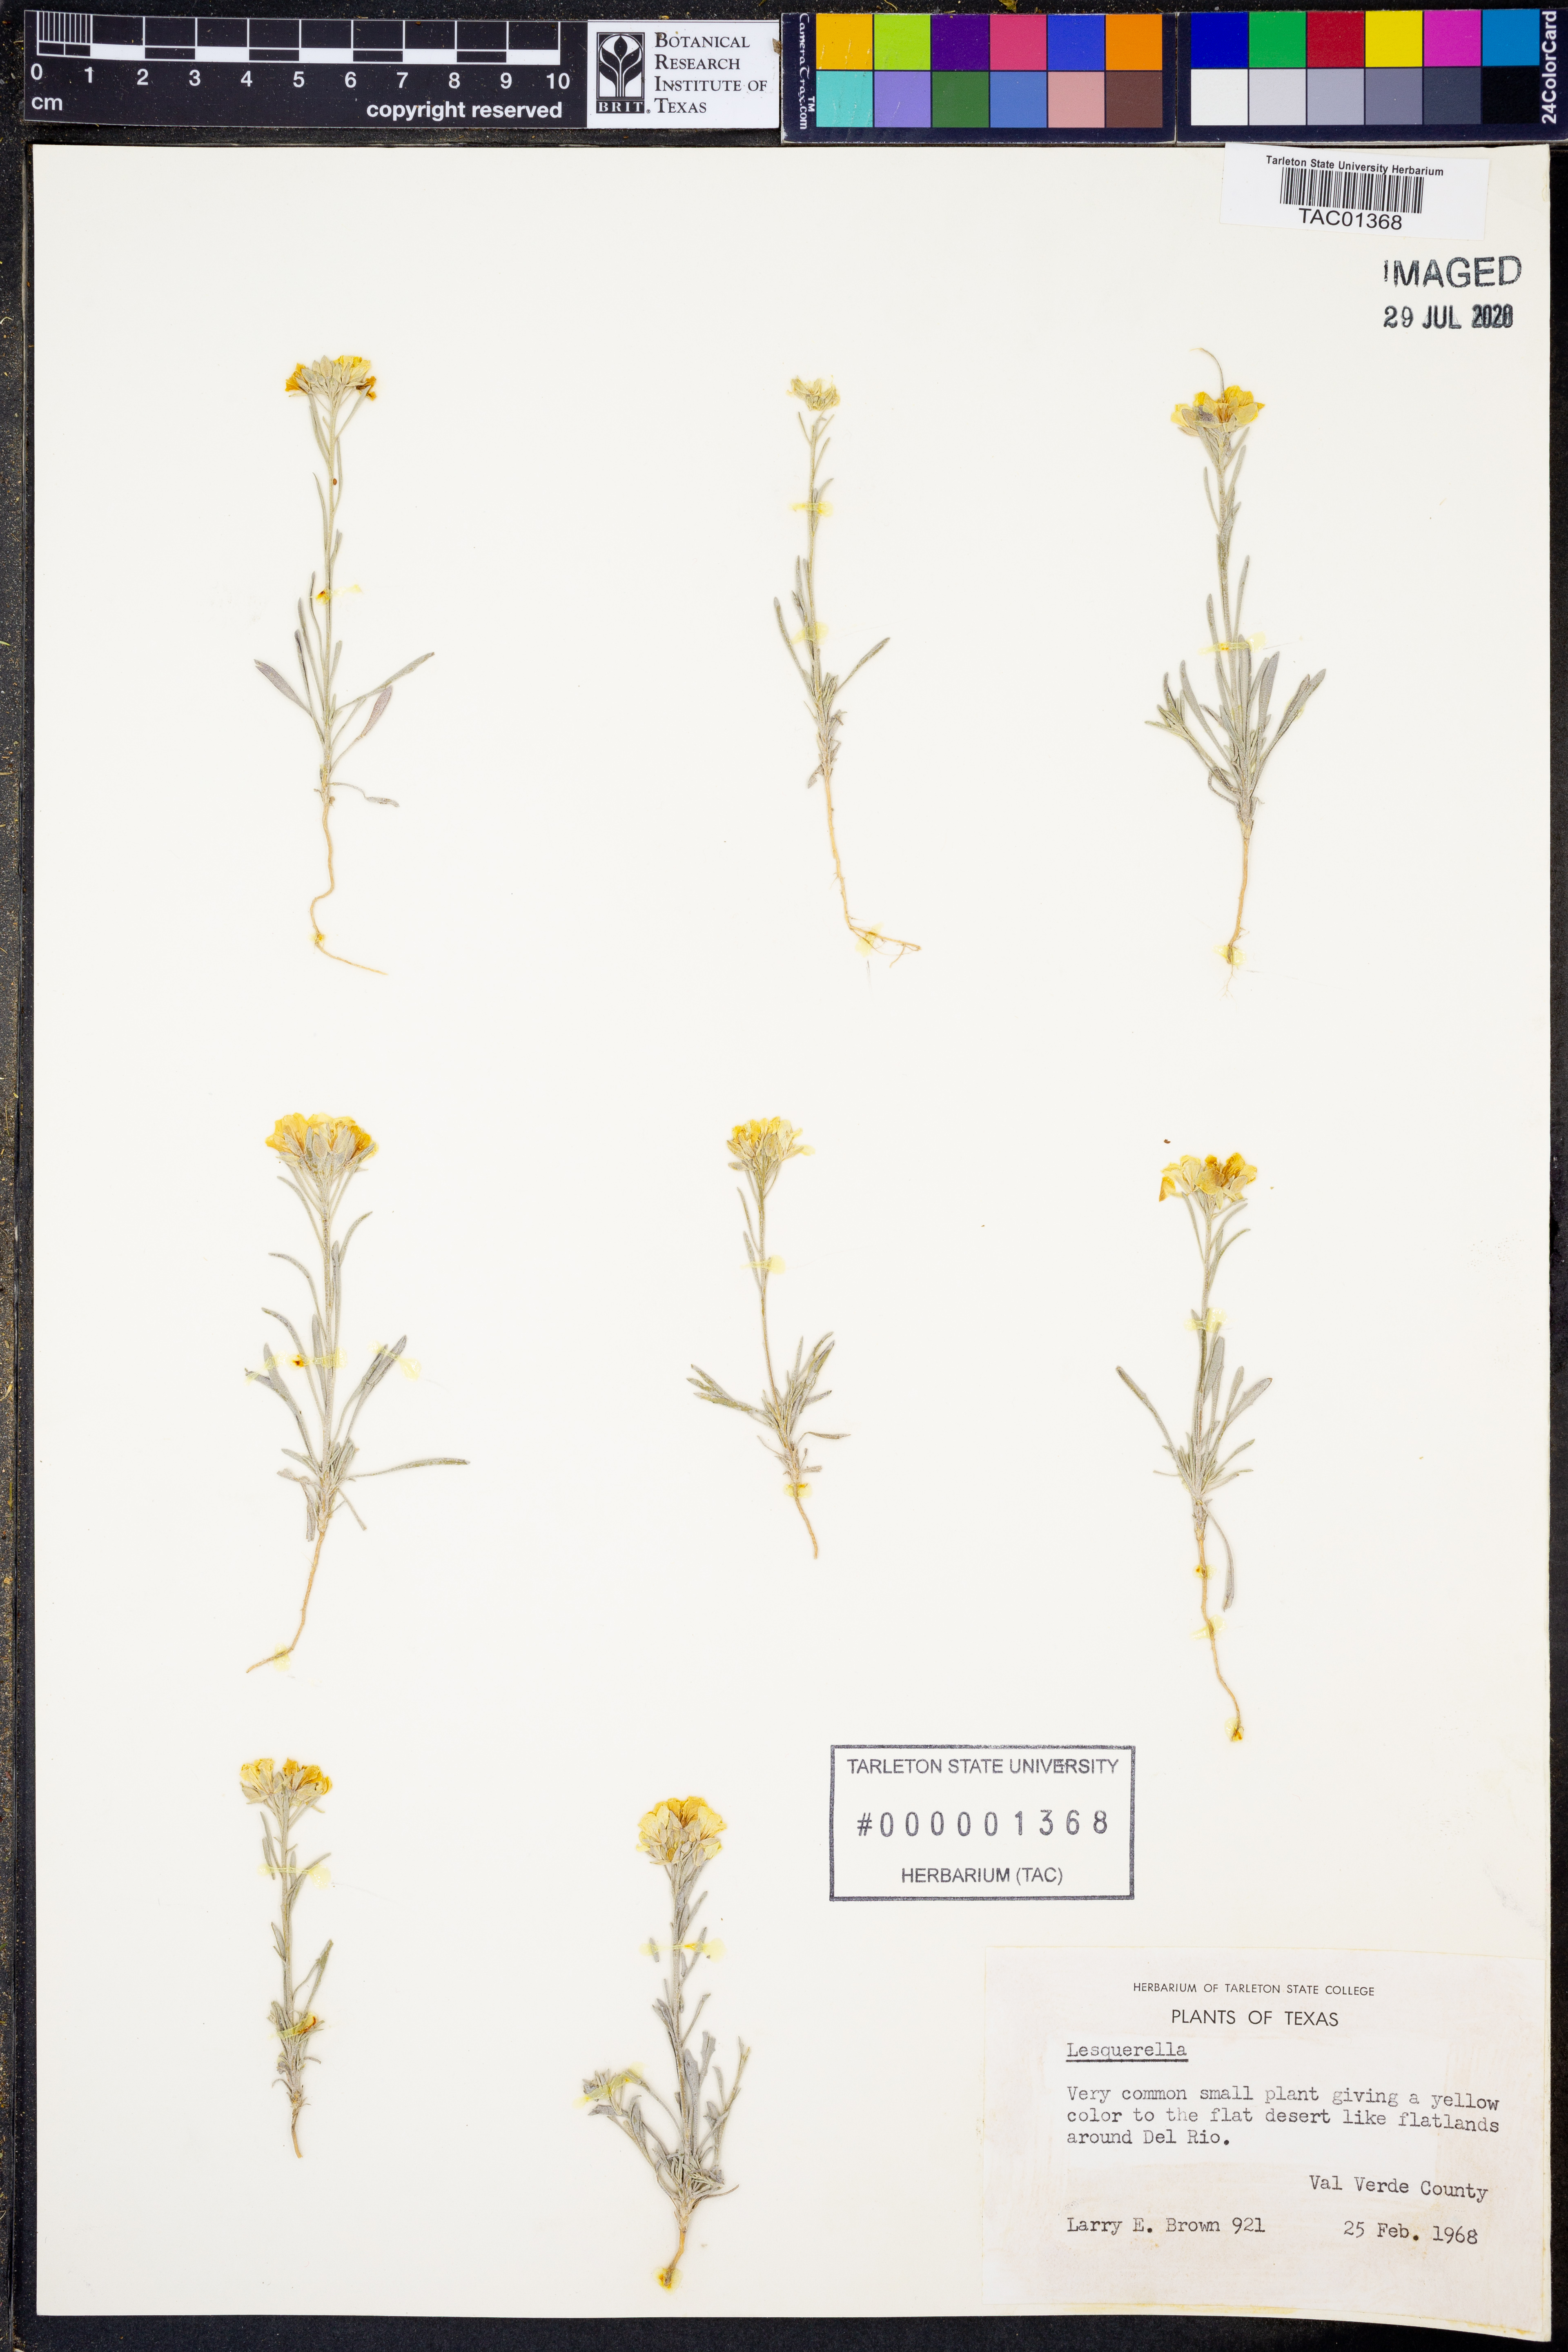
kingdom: Chromista
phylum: Cercozoa
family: Psammonobiotidae
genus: Lesquerella
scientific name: Lesquerella
